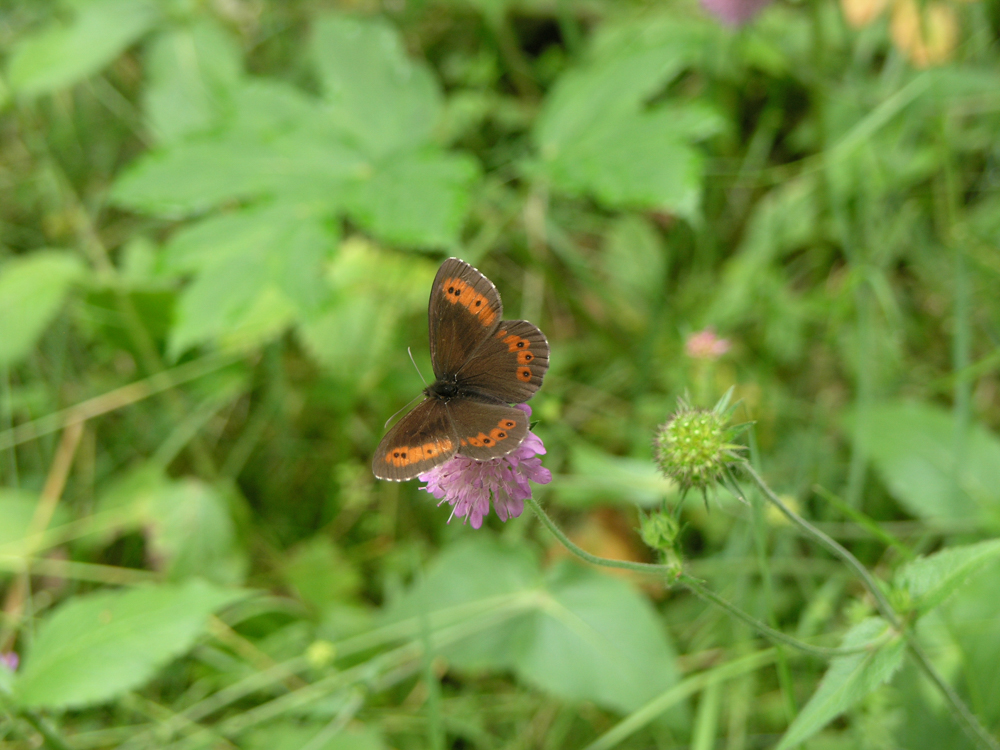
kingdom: Animalia
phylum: Arthropoda
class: Insecta
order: Lepidoptera
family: Nymphalidae
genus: Erebia
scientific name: Erebia ligea
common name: Arran brown
